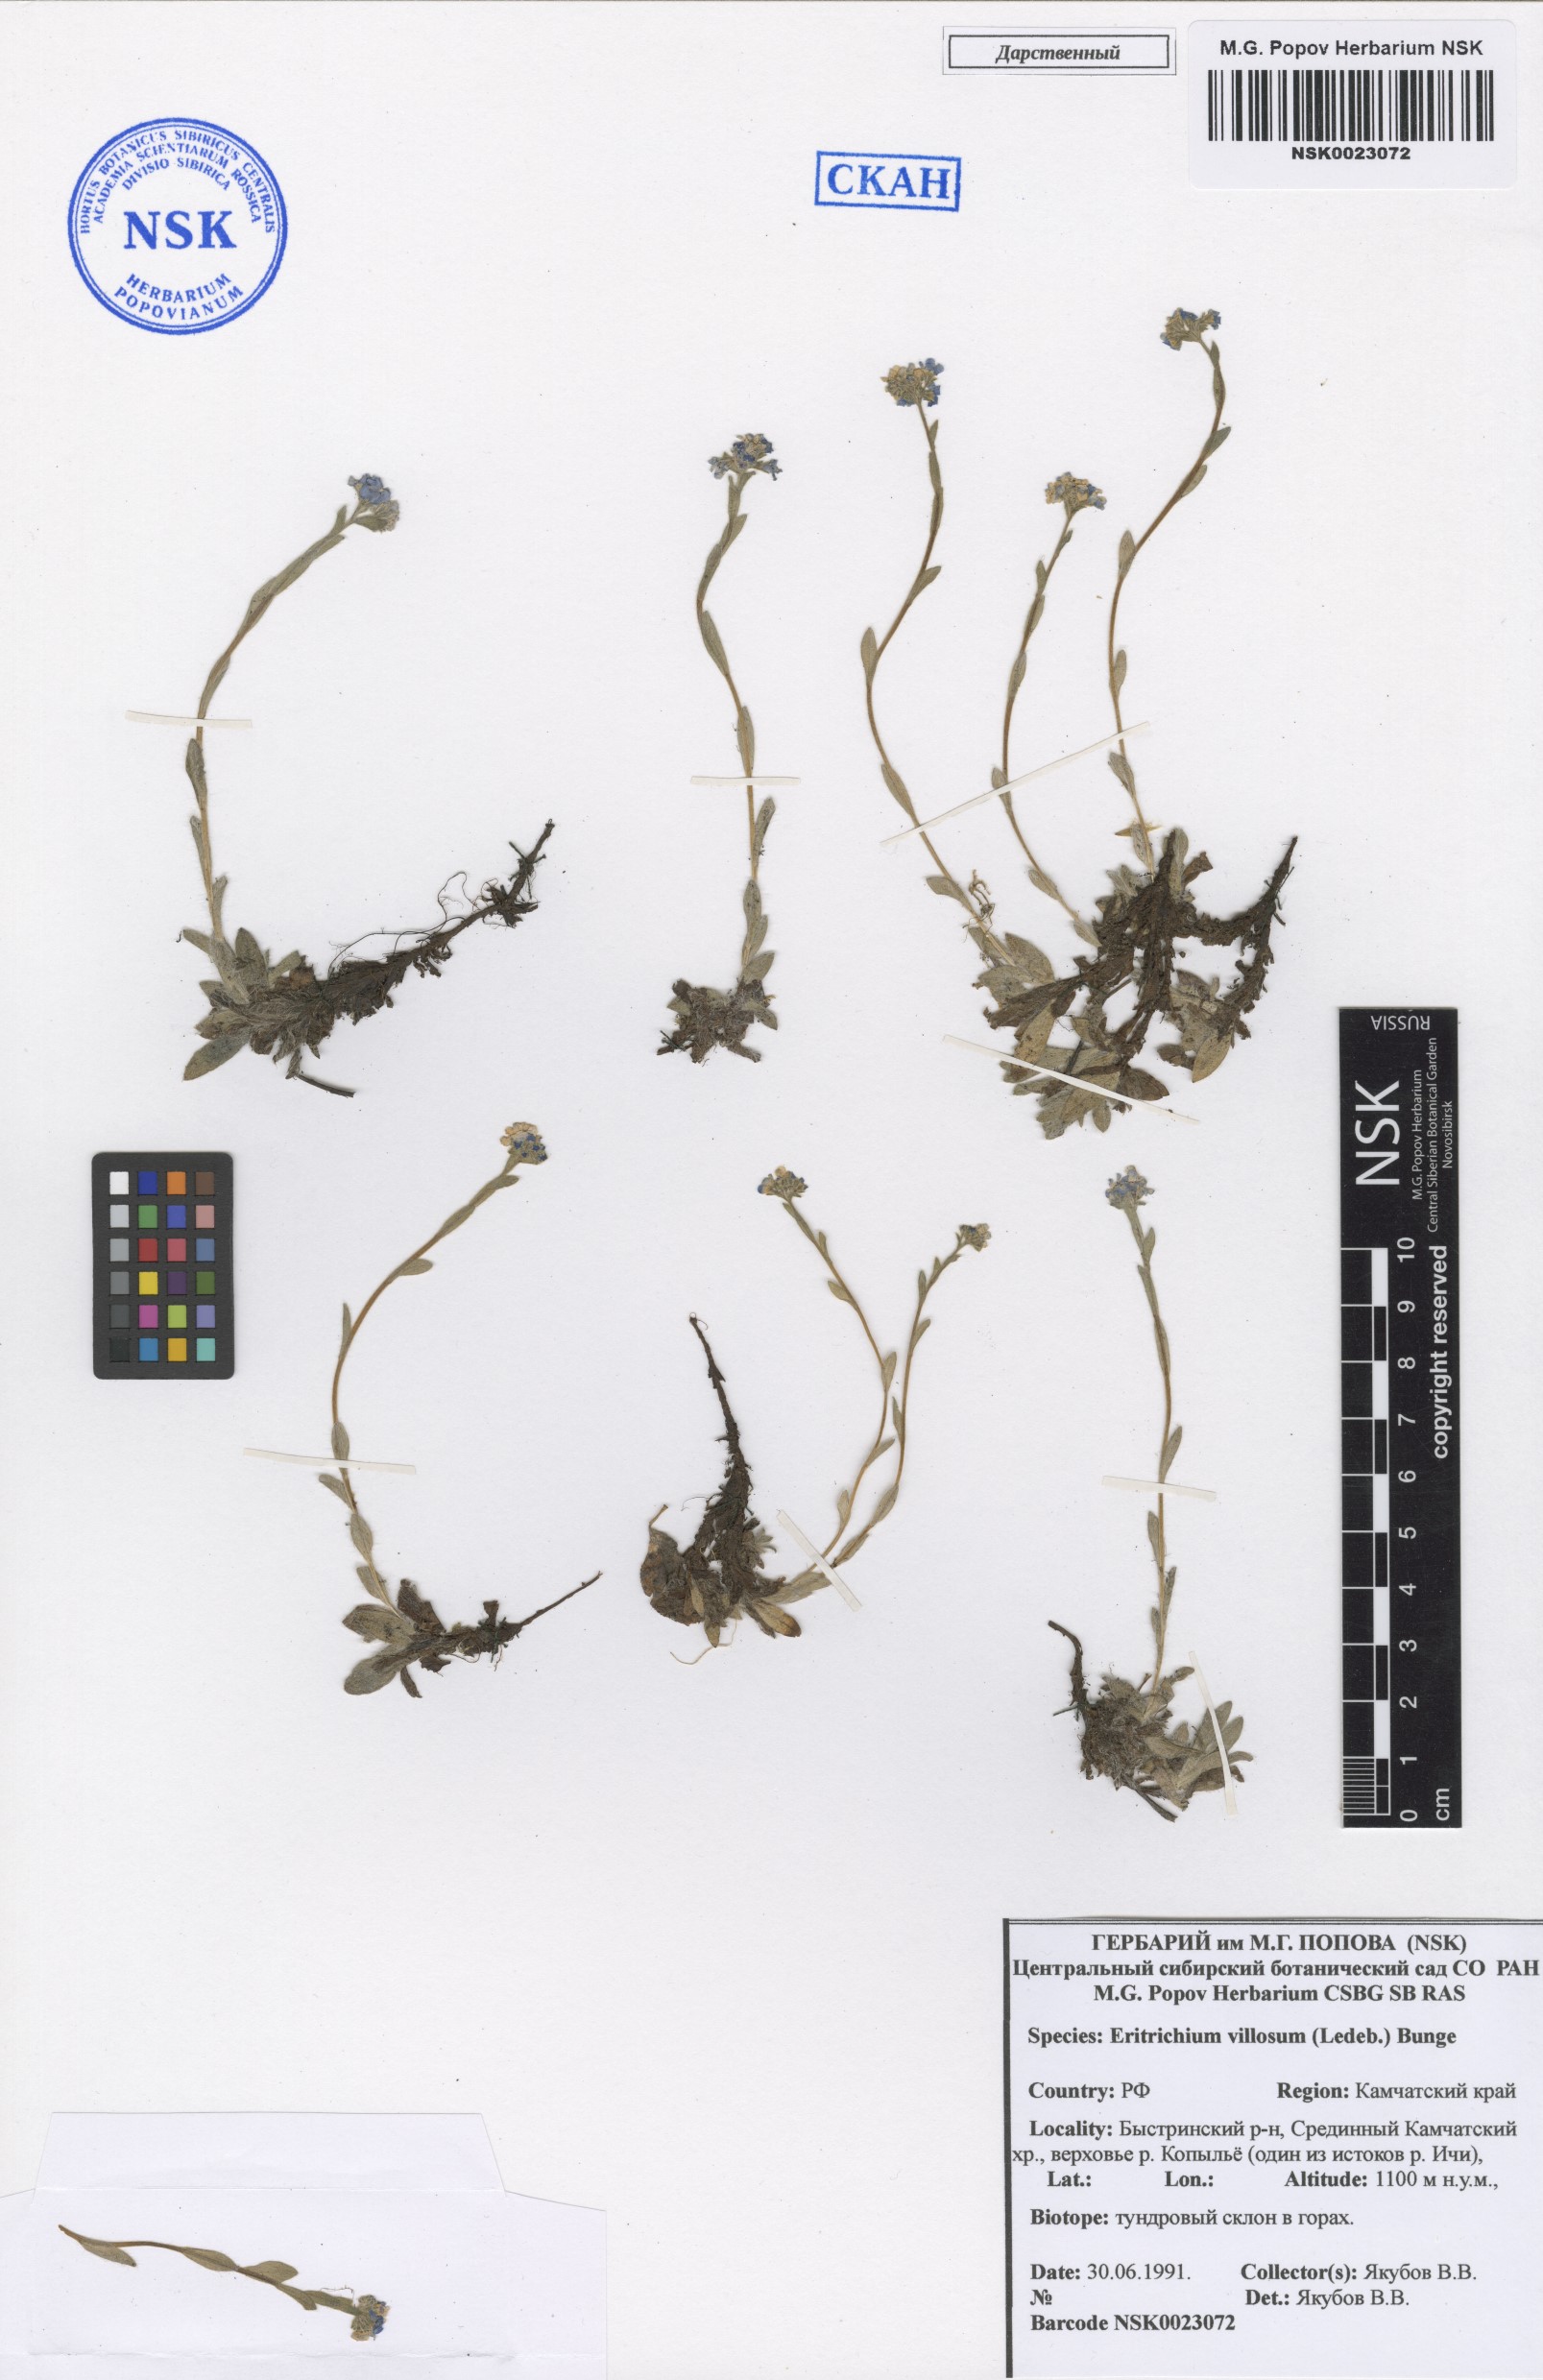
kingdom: Plantae
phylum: Tracheophyta
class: Magnoliopsida
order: Boraginales
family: Boraginaceae
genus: Eritrichium
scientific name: Eritrichium villosum
